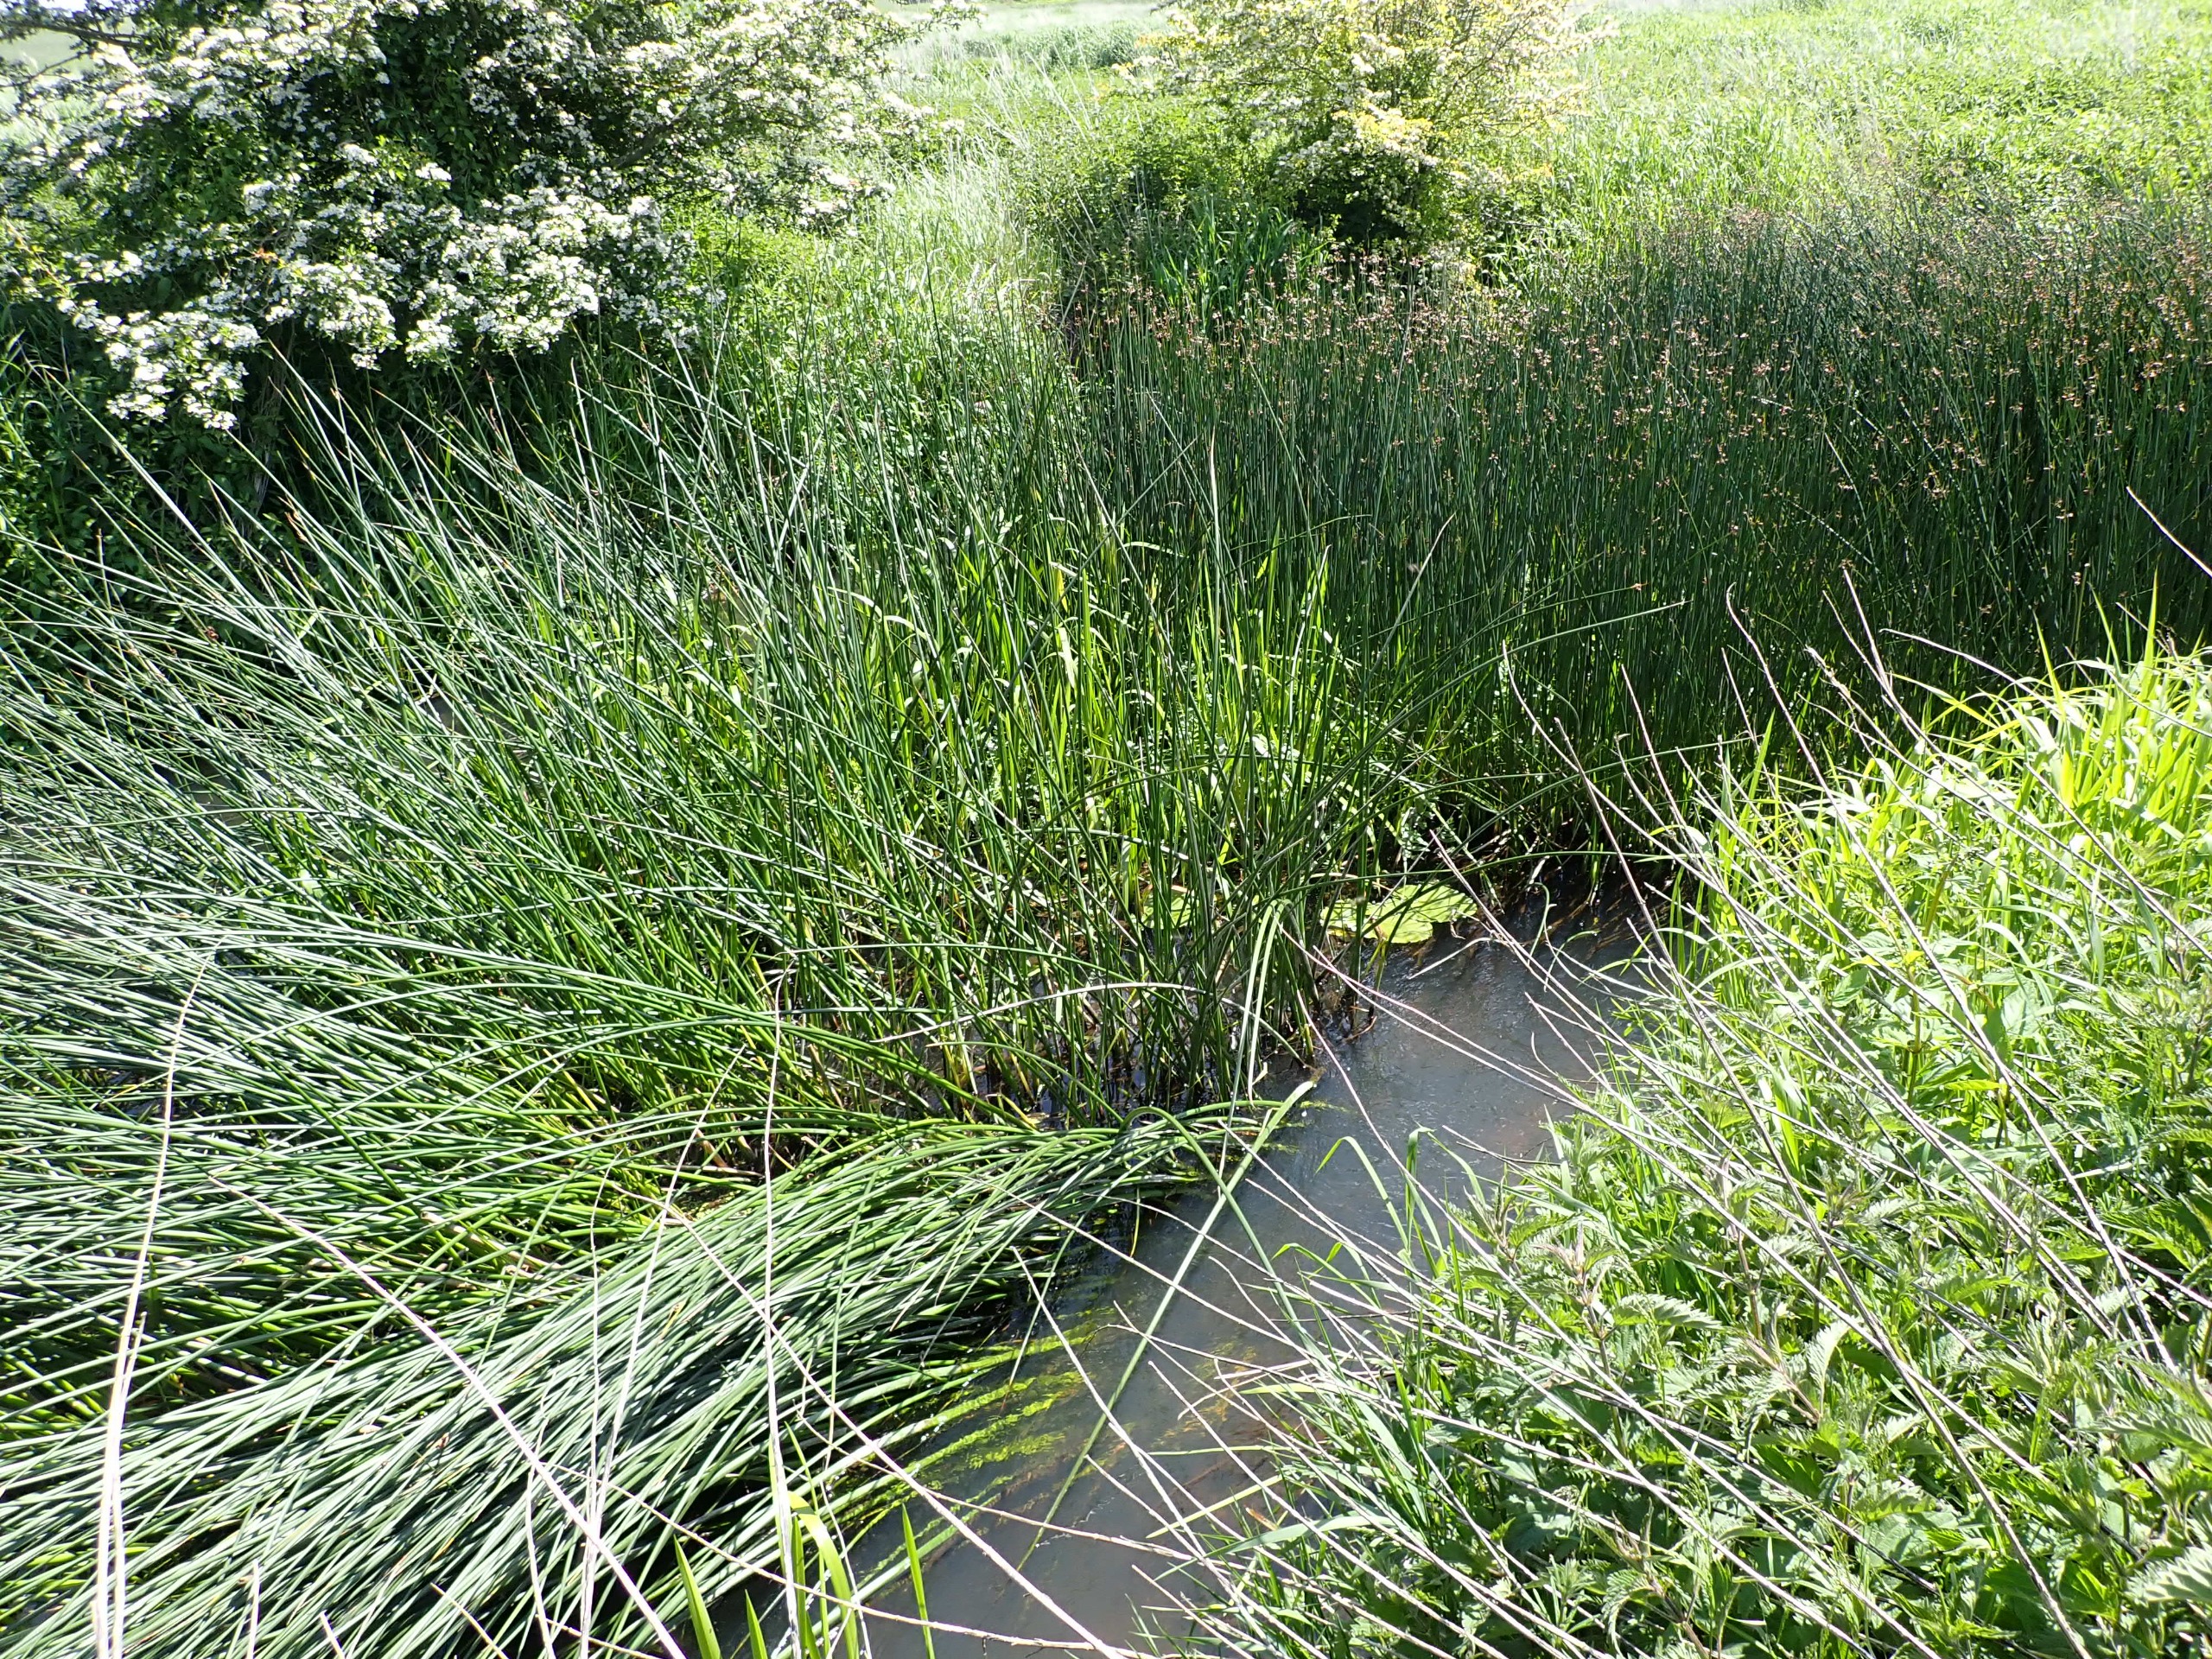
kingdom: Plantae
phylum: Tracheophyta
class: Liliopsida
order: Poales
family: Cyperaceae
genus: Schoenoplectus
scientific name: Schoenoplectus lacustris
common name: Sø-kogleaks
